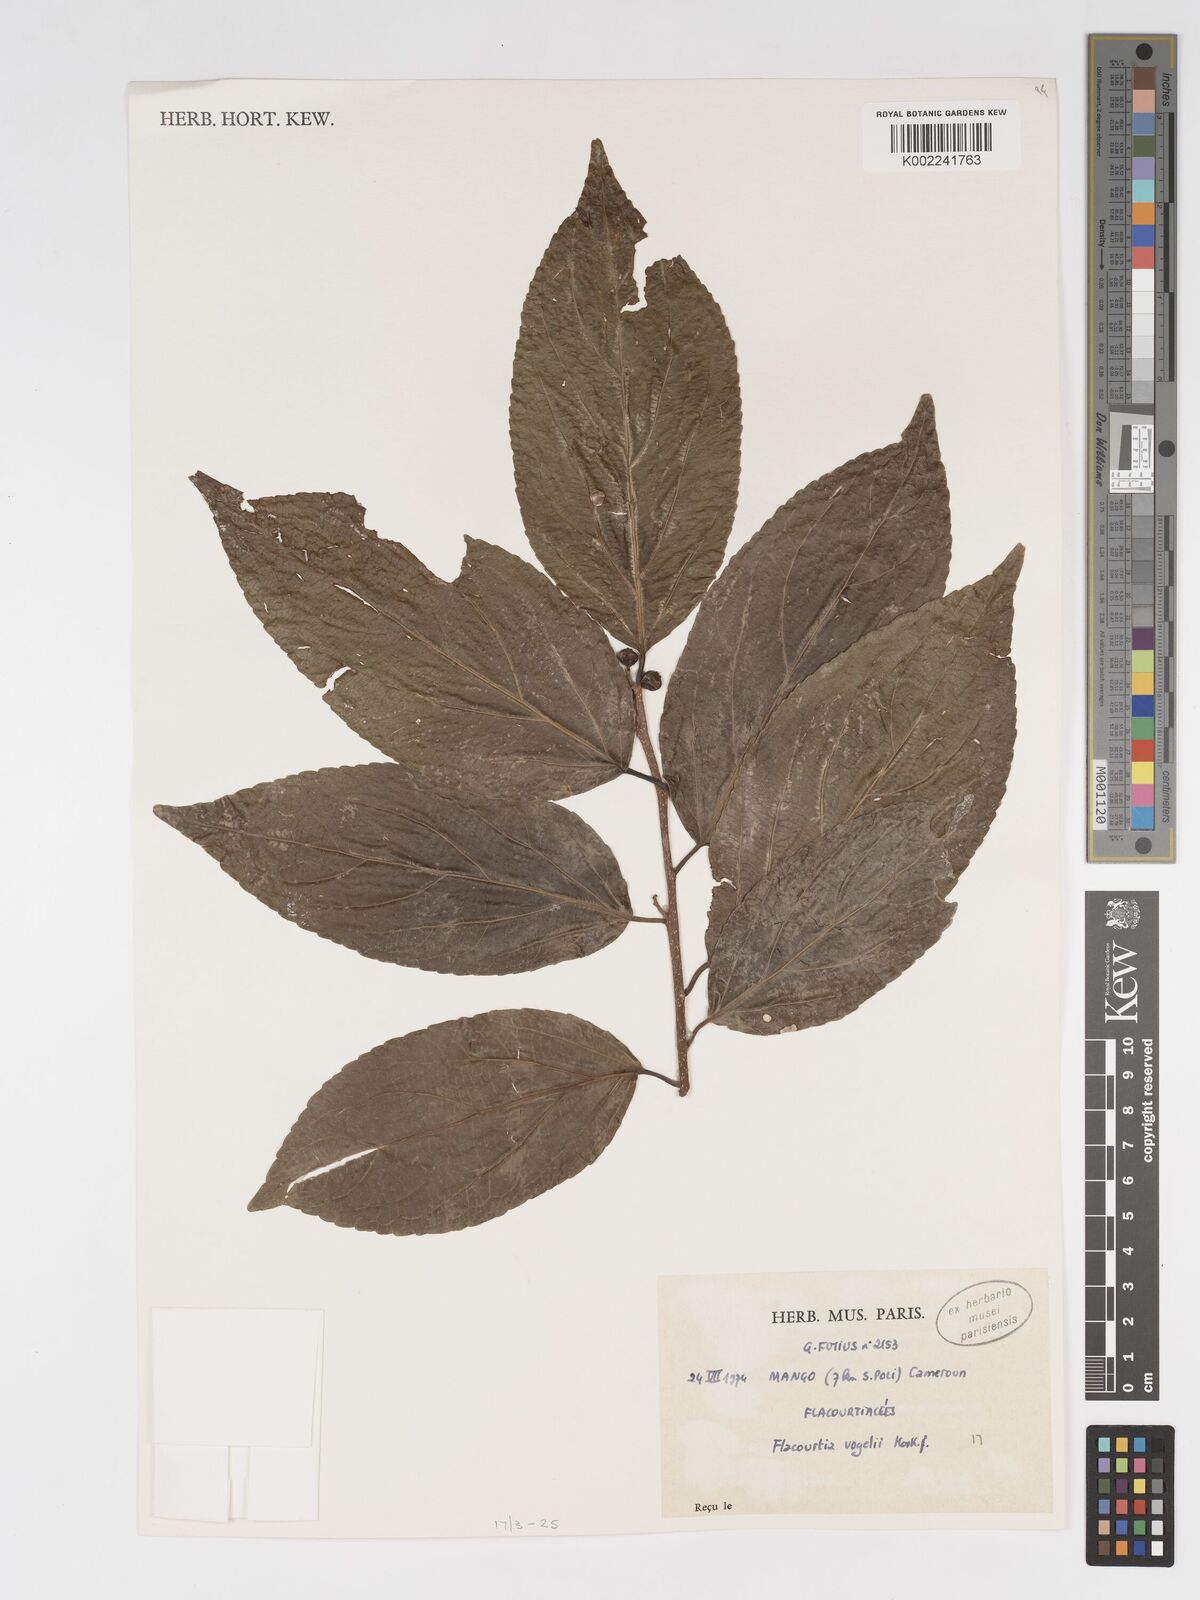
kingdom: Plantae
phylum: Tracheophyta
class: Magnoliopsida
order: Malpighiales
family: Salicaceae
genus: Flacourtia
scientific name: Flacourtia vogelii
